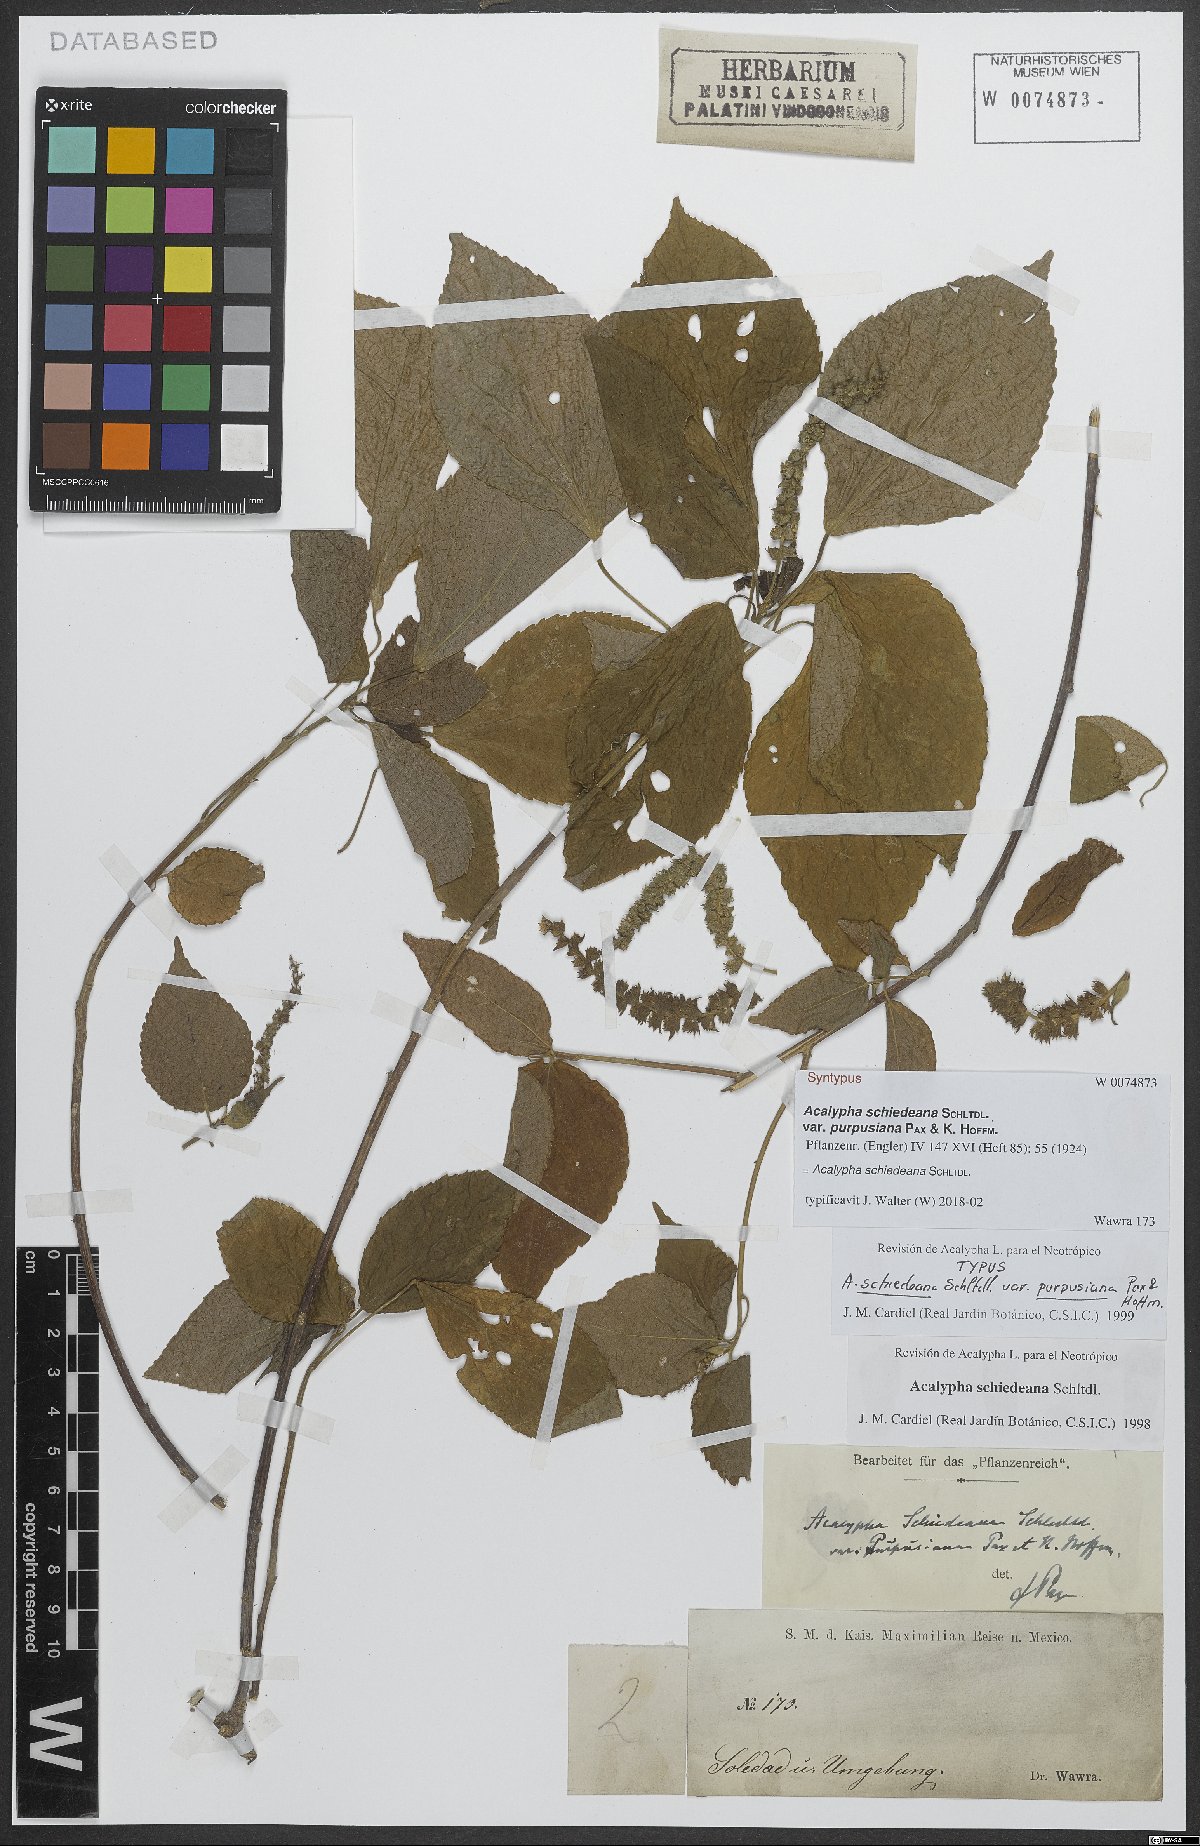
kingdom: Plantae
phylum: Tracheophyta
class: Magnoliopsida
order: Malpighiales
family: Euphorbiaceae
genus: Acalypha
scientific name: Acalypha schiedeana
